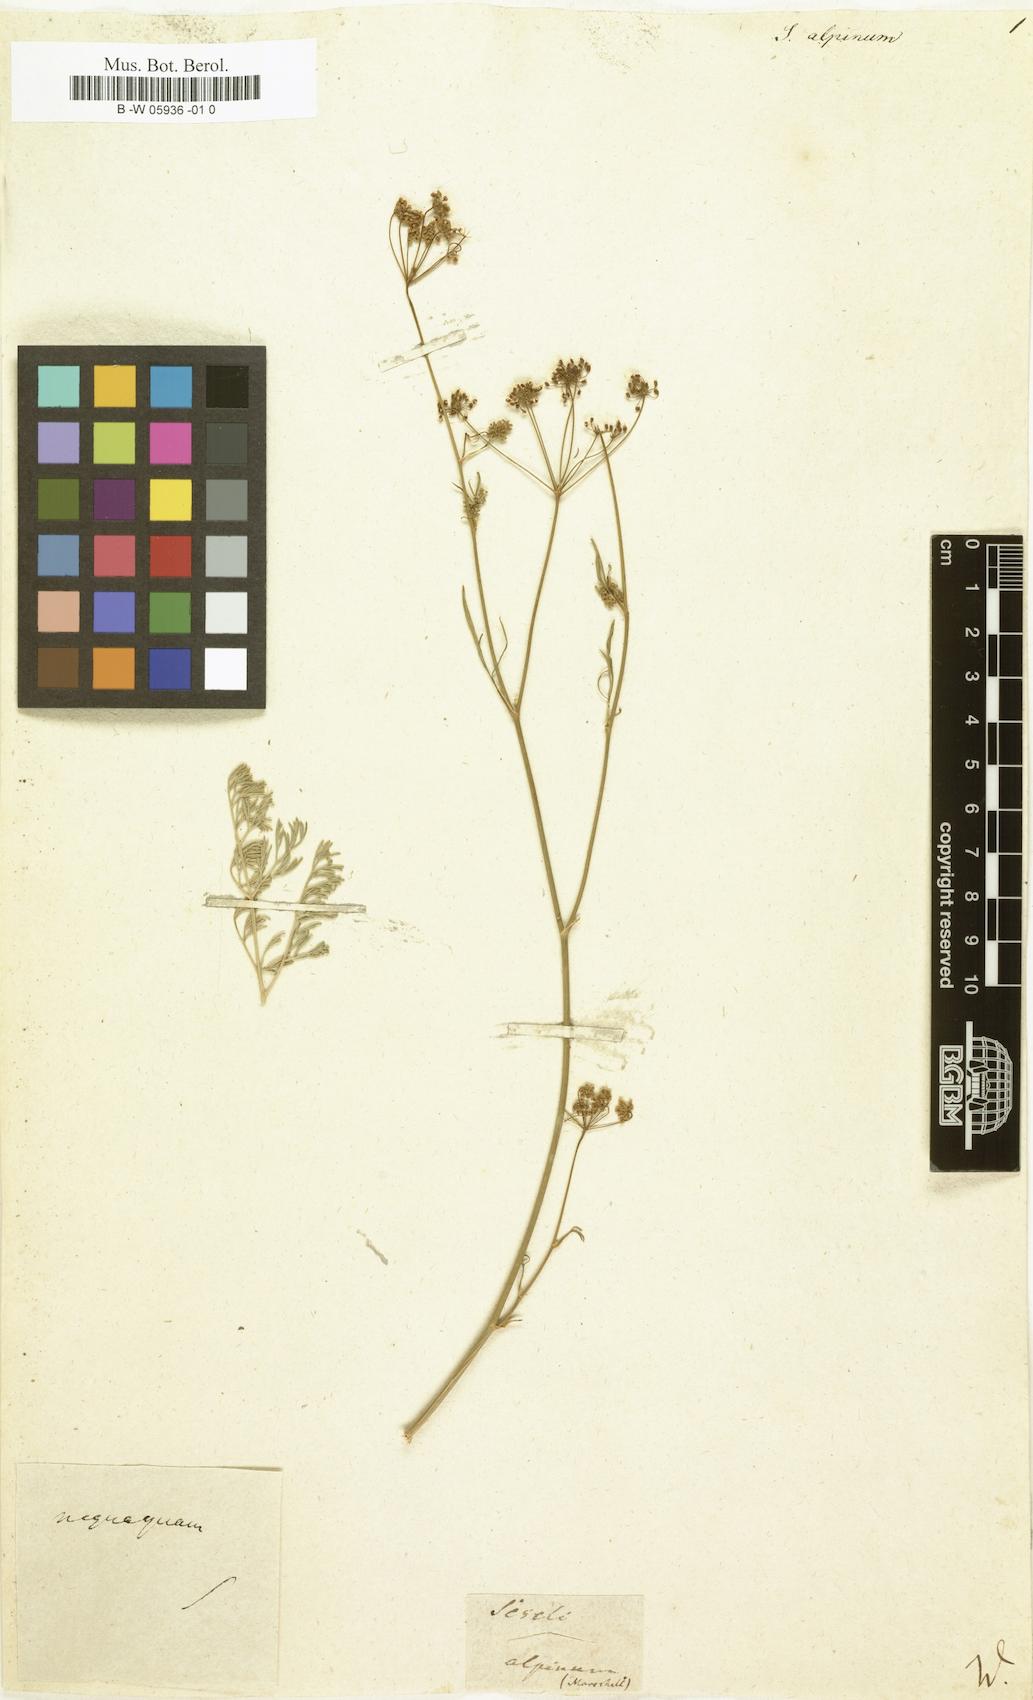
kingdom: Plantae
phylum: Tracheophyta
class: Magnoliopsida
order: Apiales
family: Apiaceae
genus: Lomatocarum
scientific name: Lomatocarum alpinum
